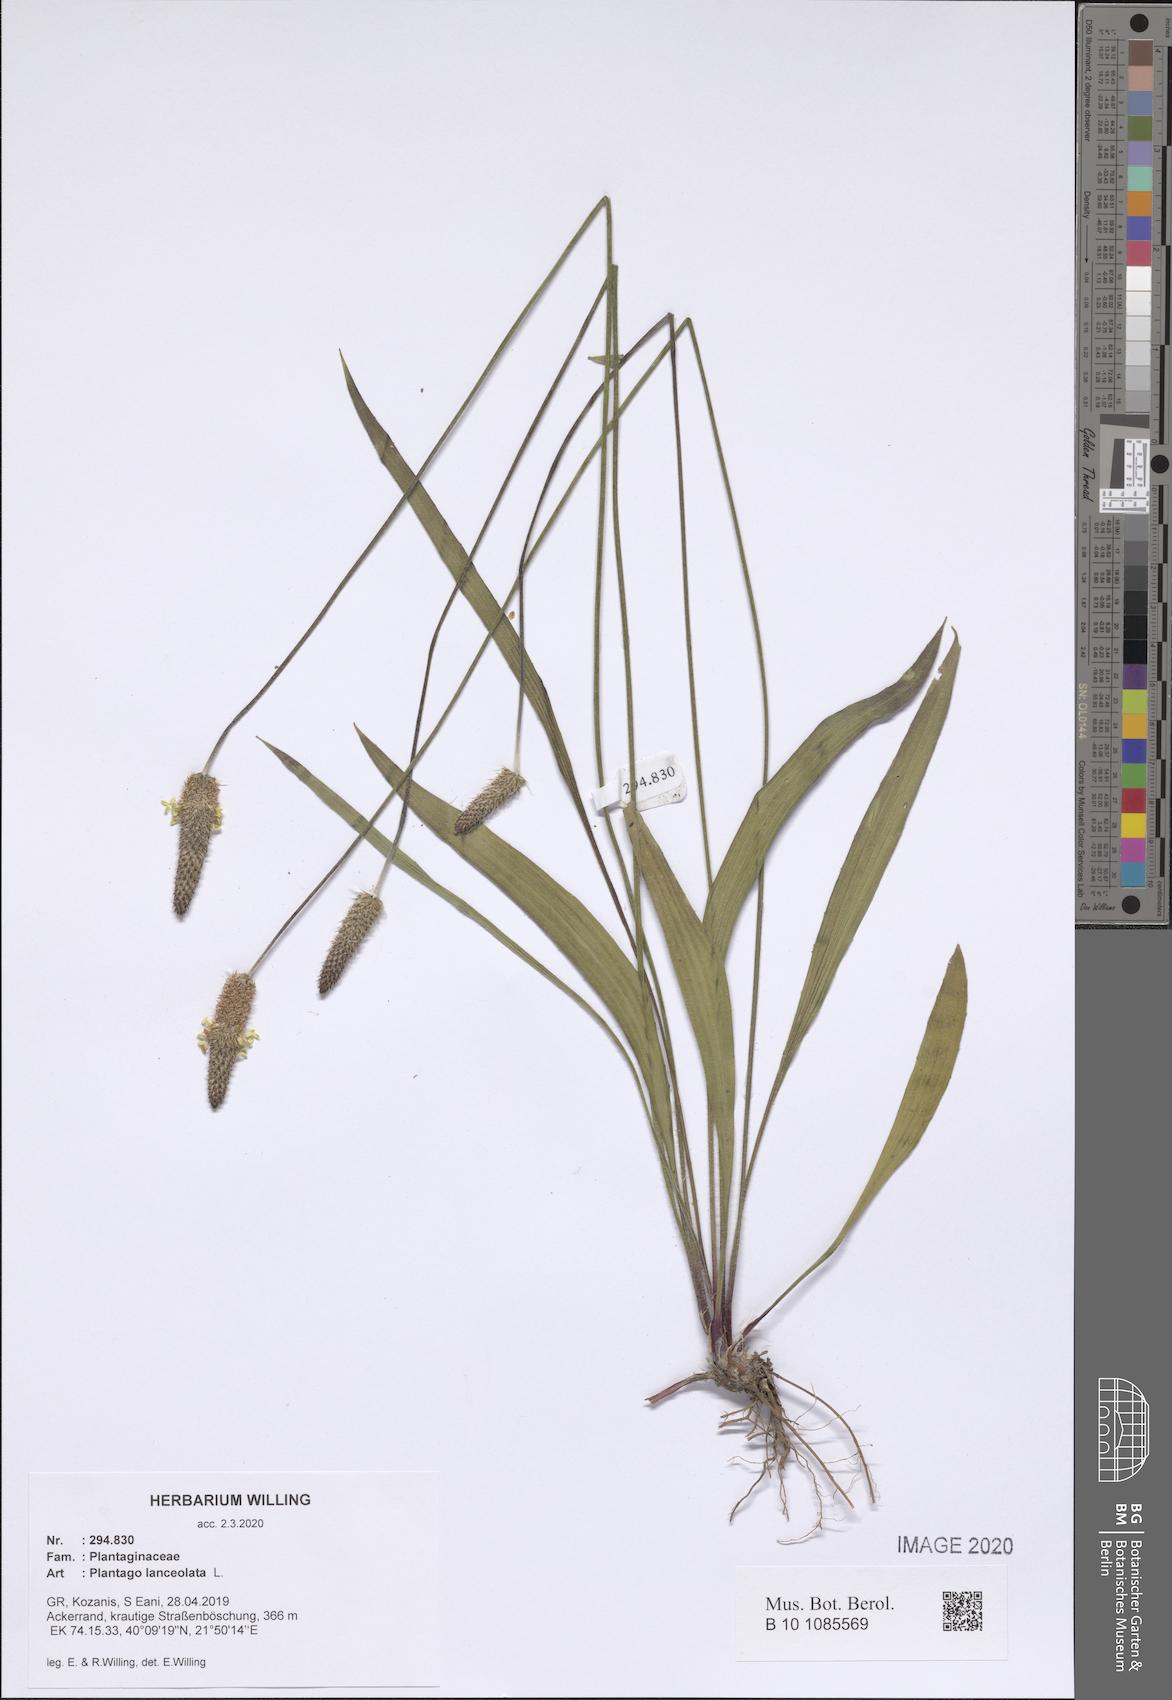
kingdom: Plantae
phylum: Tracheophyta
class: Magnoliopsida
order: Lamiales
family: Plantaginaceae
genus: Plantago
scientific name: Plantago lanceolata
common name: Ribwort plantain
